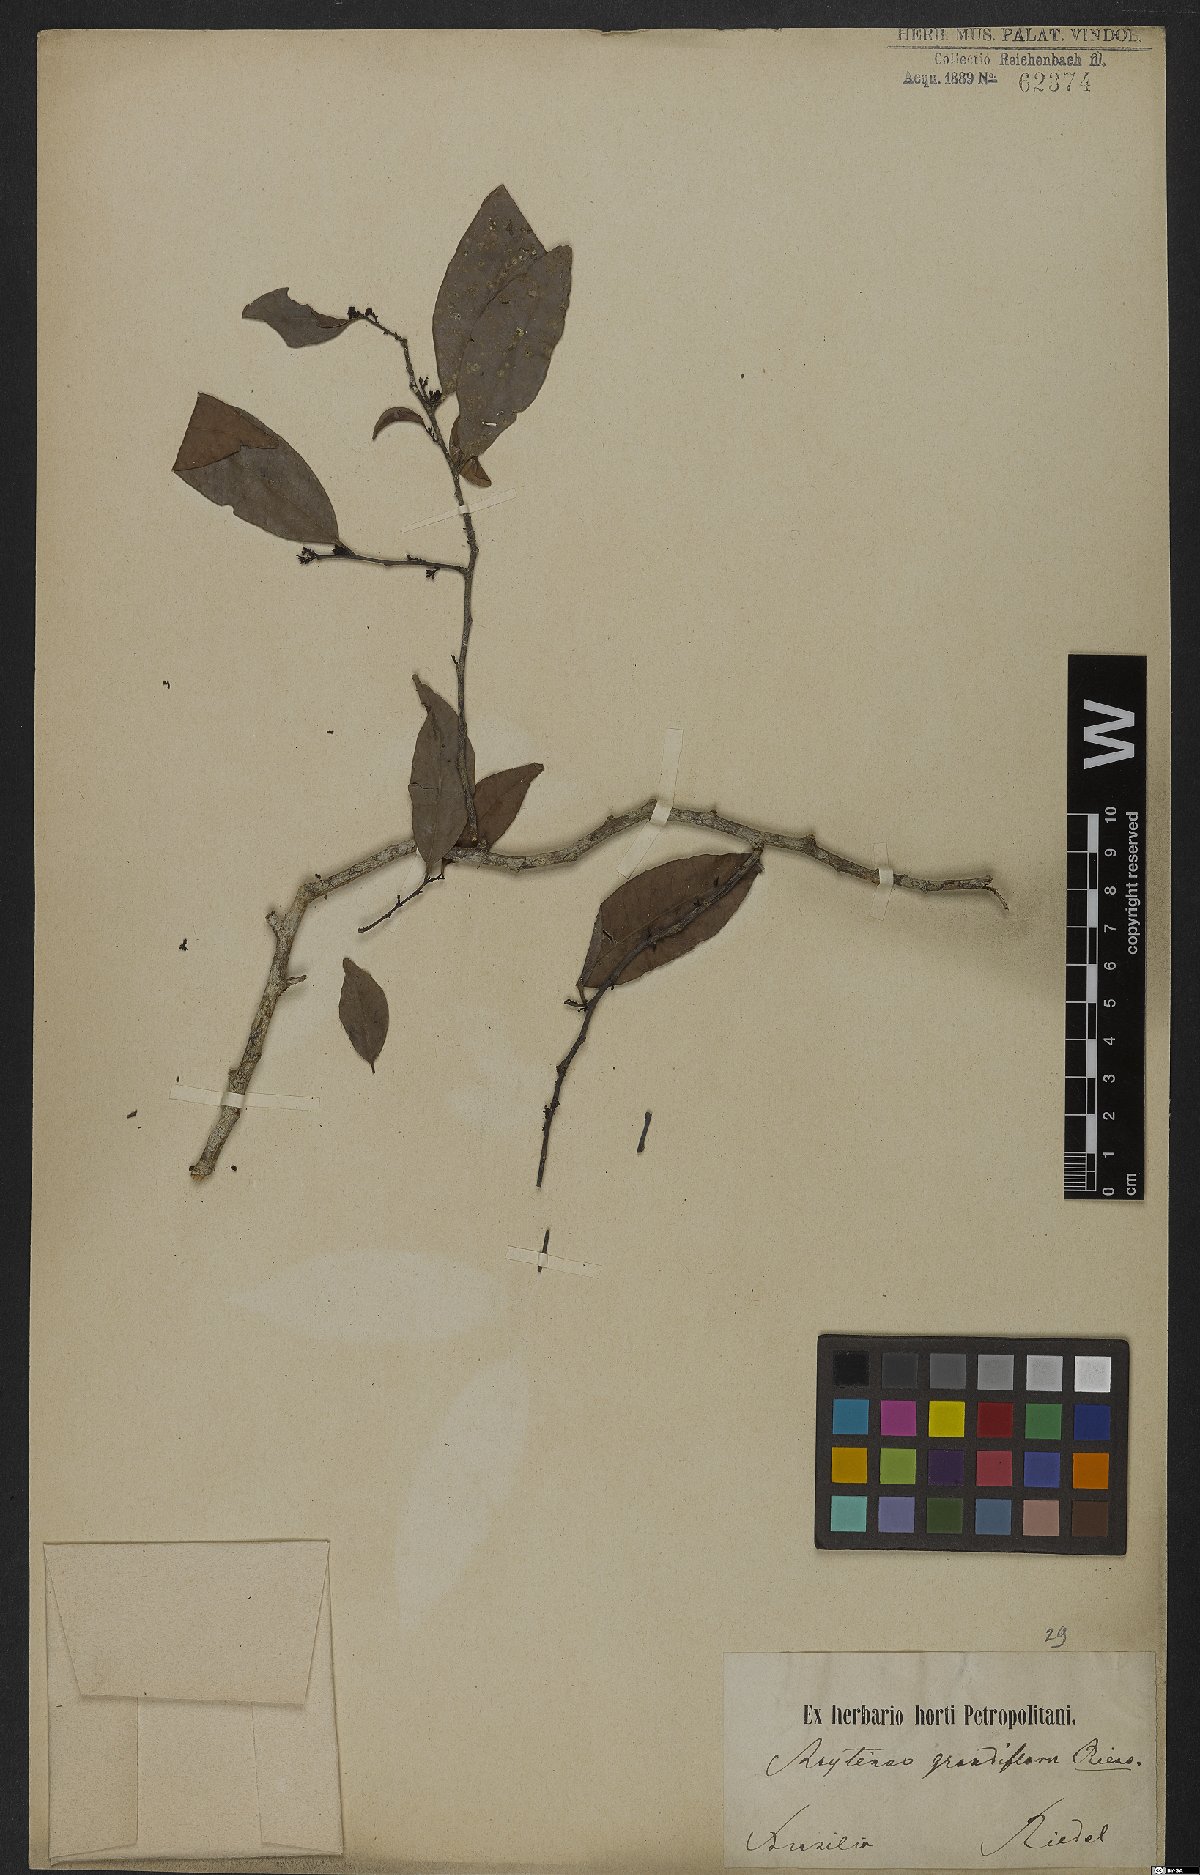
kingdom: Plantae
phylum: Tracheophyta
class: Magnoliopsida
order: Celastrales
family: Celastraceae
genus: Monteverdia
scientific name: Monteverdia communis
